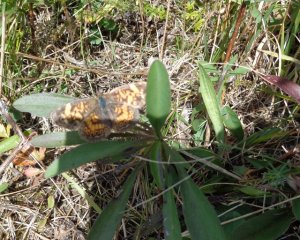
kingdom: Animalia
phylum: Arthropoda
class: Insecta
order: Lepidoptera
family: Nymphalidae
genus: Phyciodes
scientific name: Phyciodes tharos
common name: Pearl Crescent
